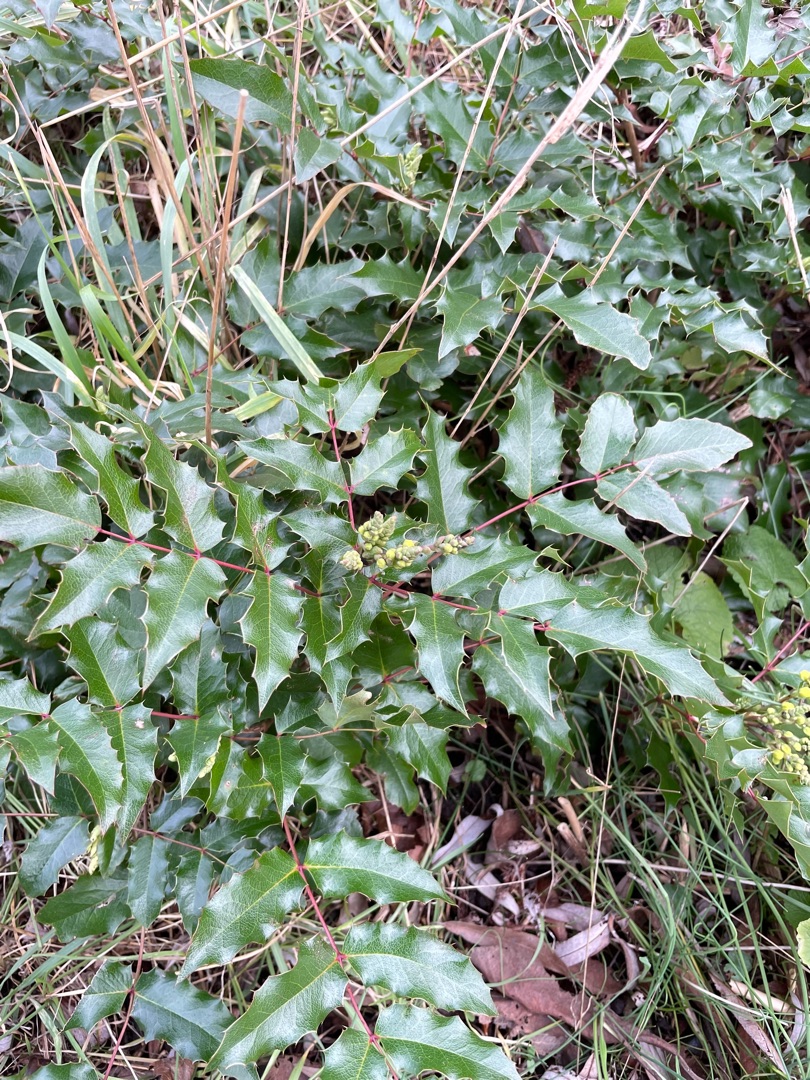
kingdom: Plantae
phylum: Tracheophyta
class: Magnoliopsida
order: Ranunculales
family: Berberidaceae
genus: Mahonia
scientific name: Mahonia aquifolium
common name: Almindelig mahonie
